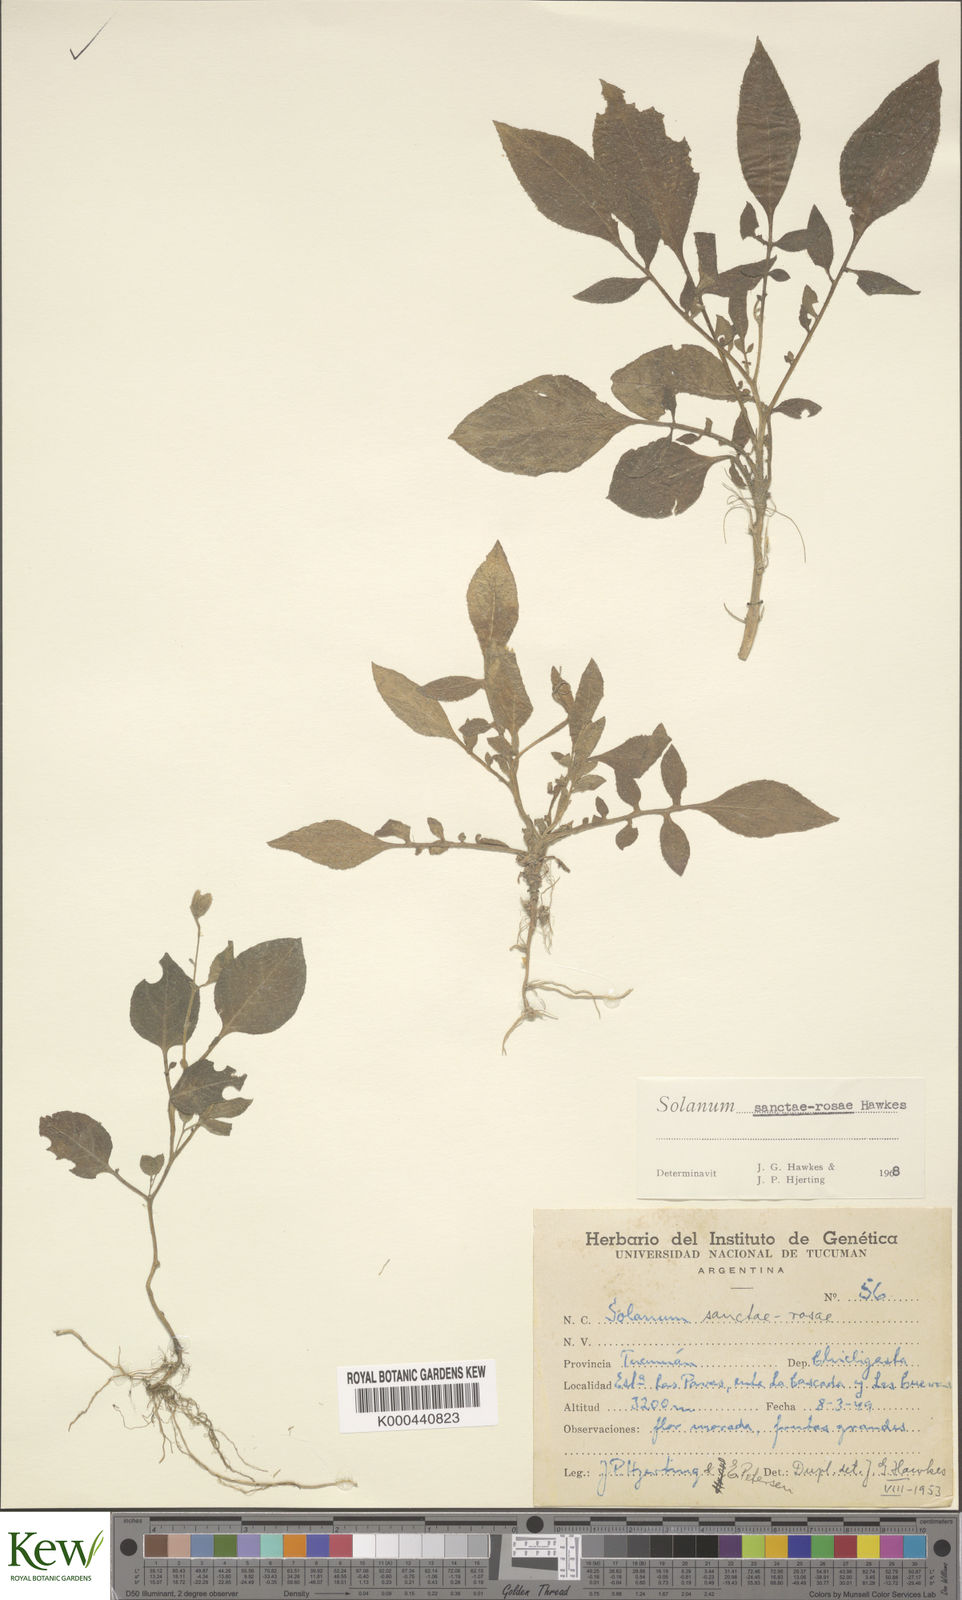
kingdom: Plantae
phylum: Tracheophyta
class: Magnoliopsida
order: Solanales
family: Solanaceae
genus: Solanum
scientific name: Solanum boliviense
